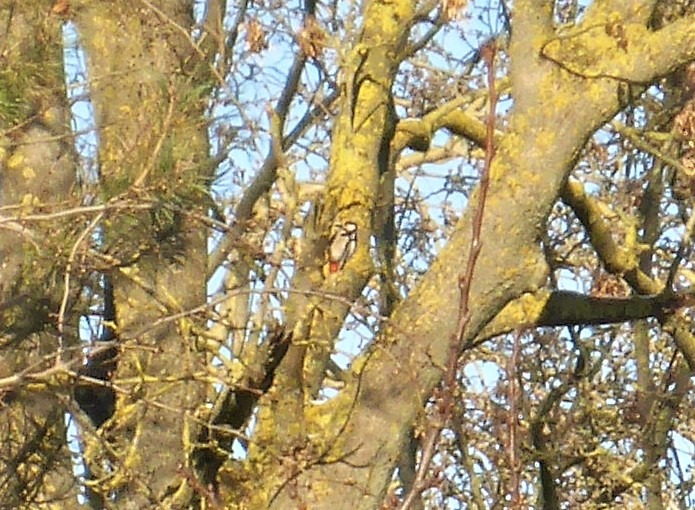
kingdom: Animalia
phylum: Chordata
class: Aves
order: Piciformes
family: Picidae
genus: Dendrocopos
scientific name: Dendrocopos major
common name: Stor flagspætte
